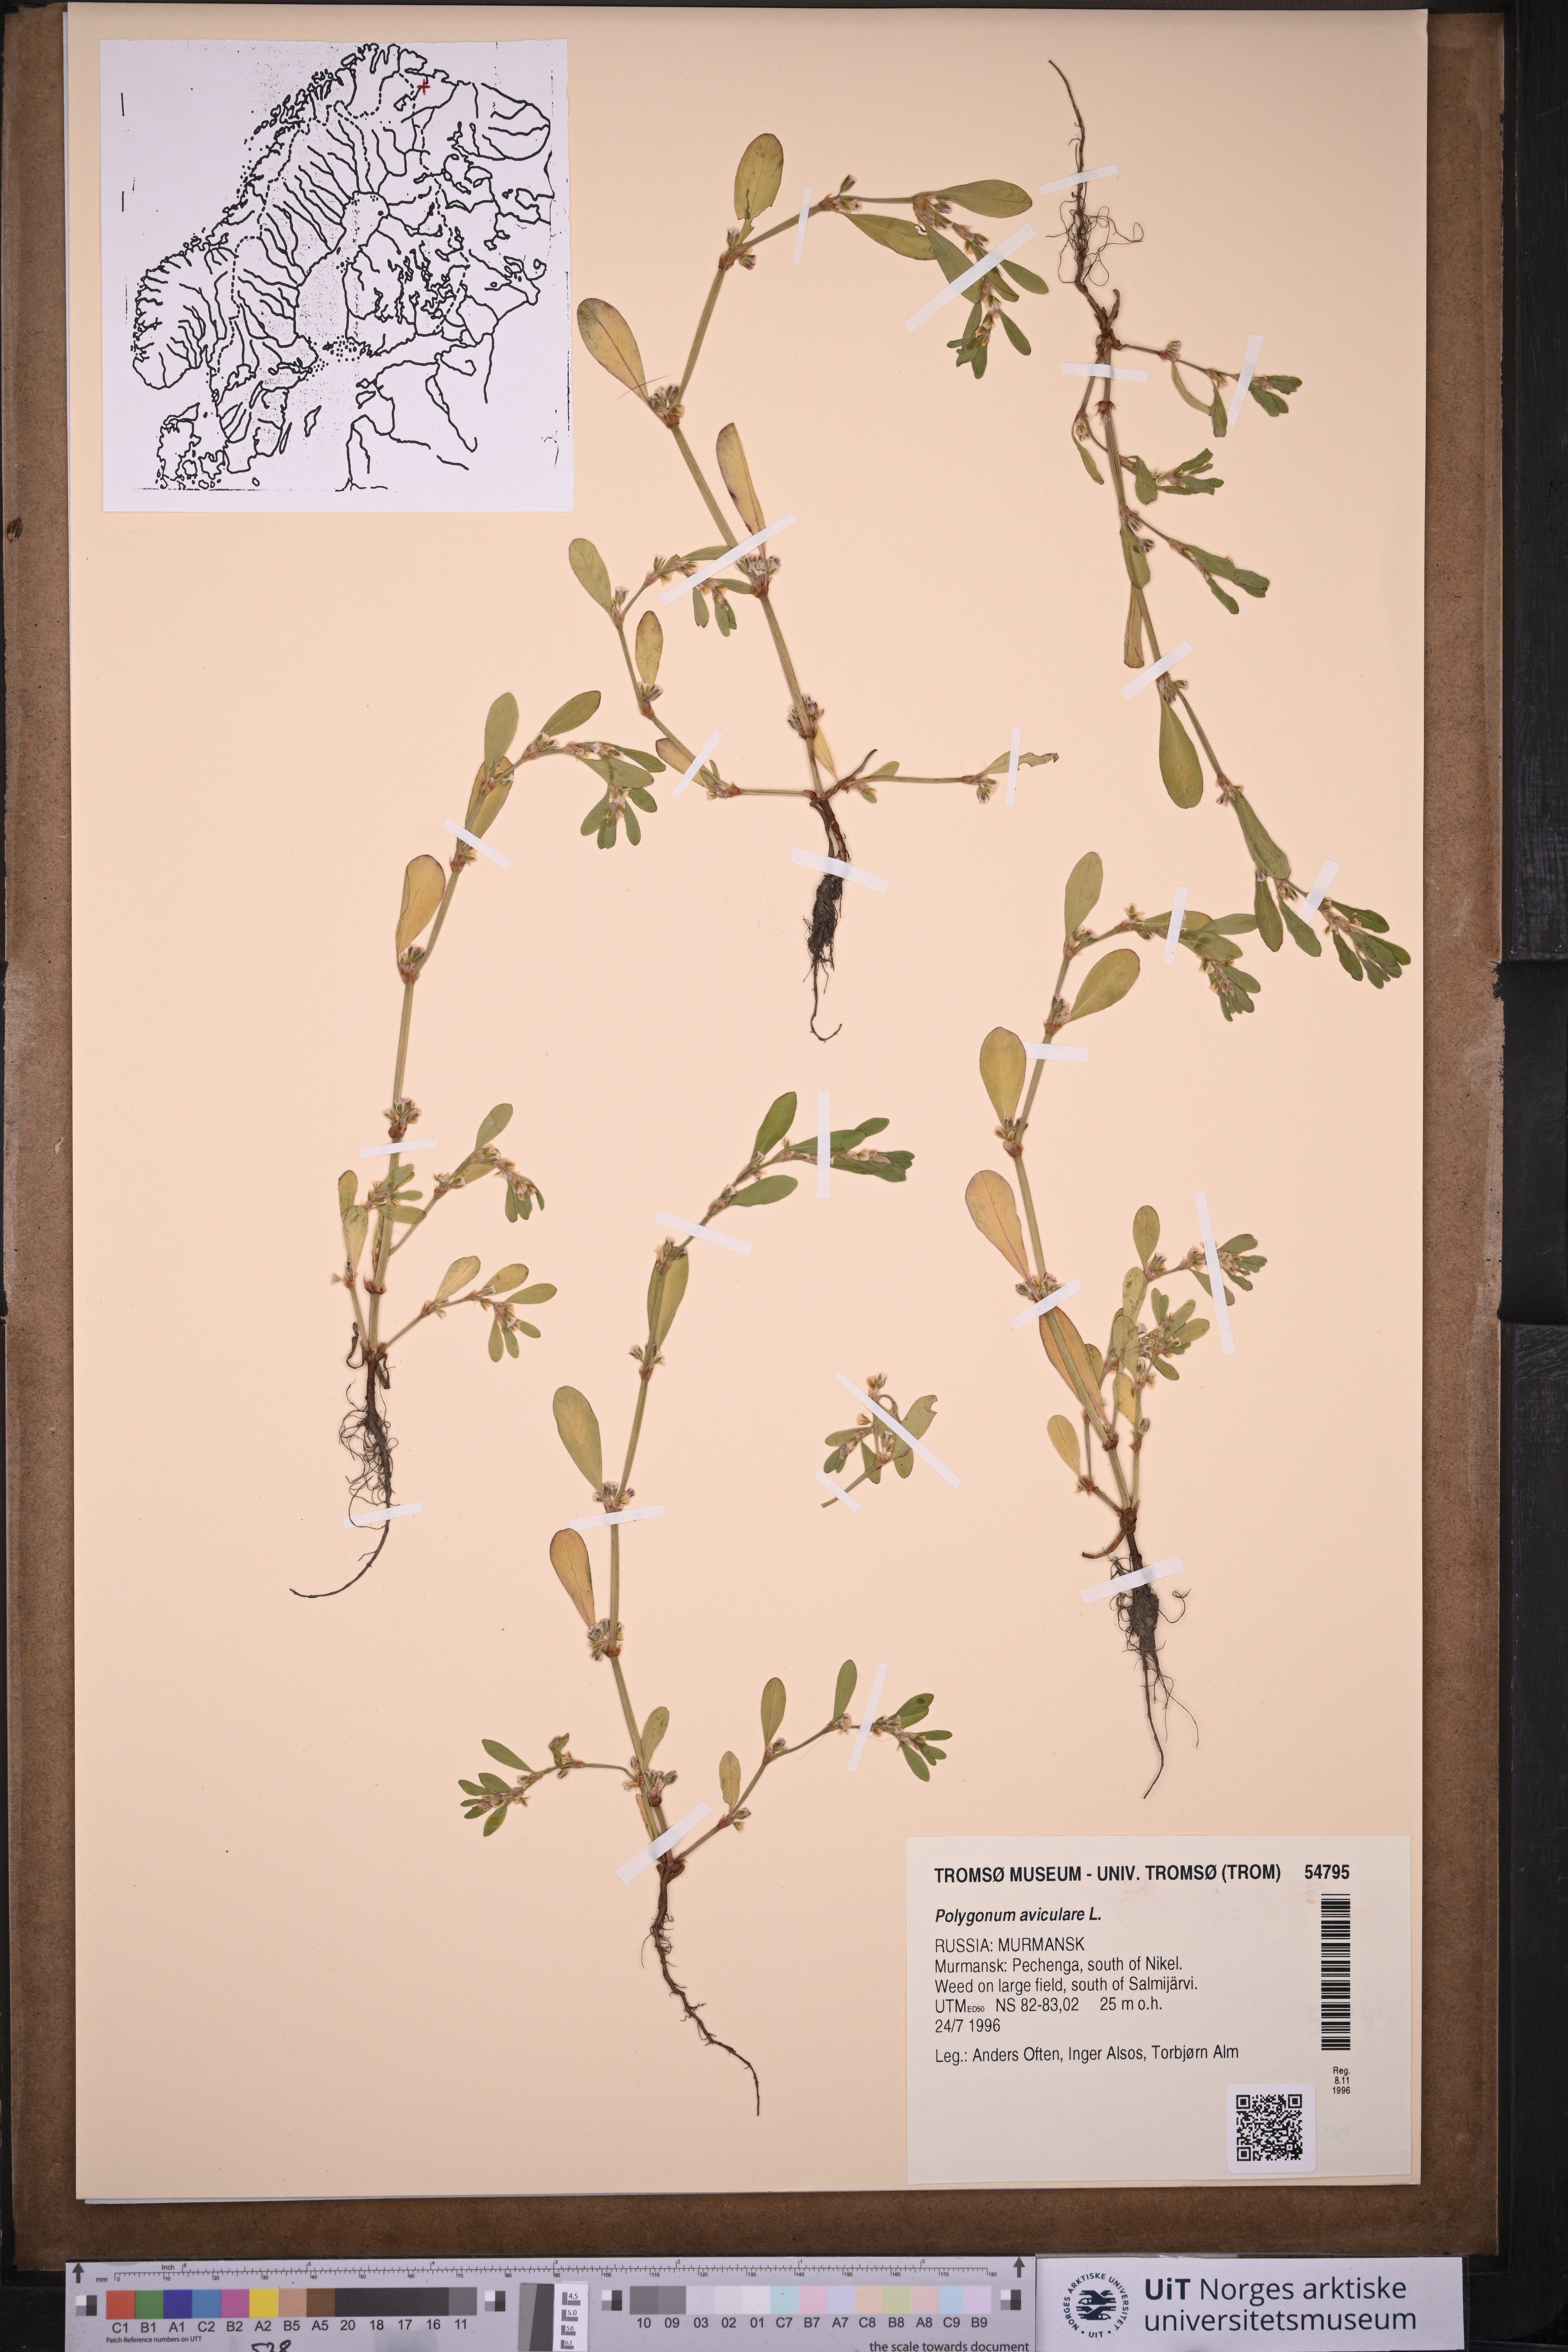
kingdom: Plantae
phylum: Tracheophyta
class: Magnoliopsida
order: Caryophyllales
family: Polygonaceae
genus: Polygonum
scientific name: Polygonum aviculare
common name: Prostrate knotweed
